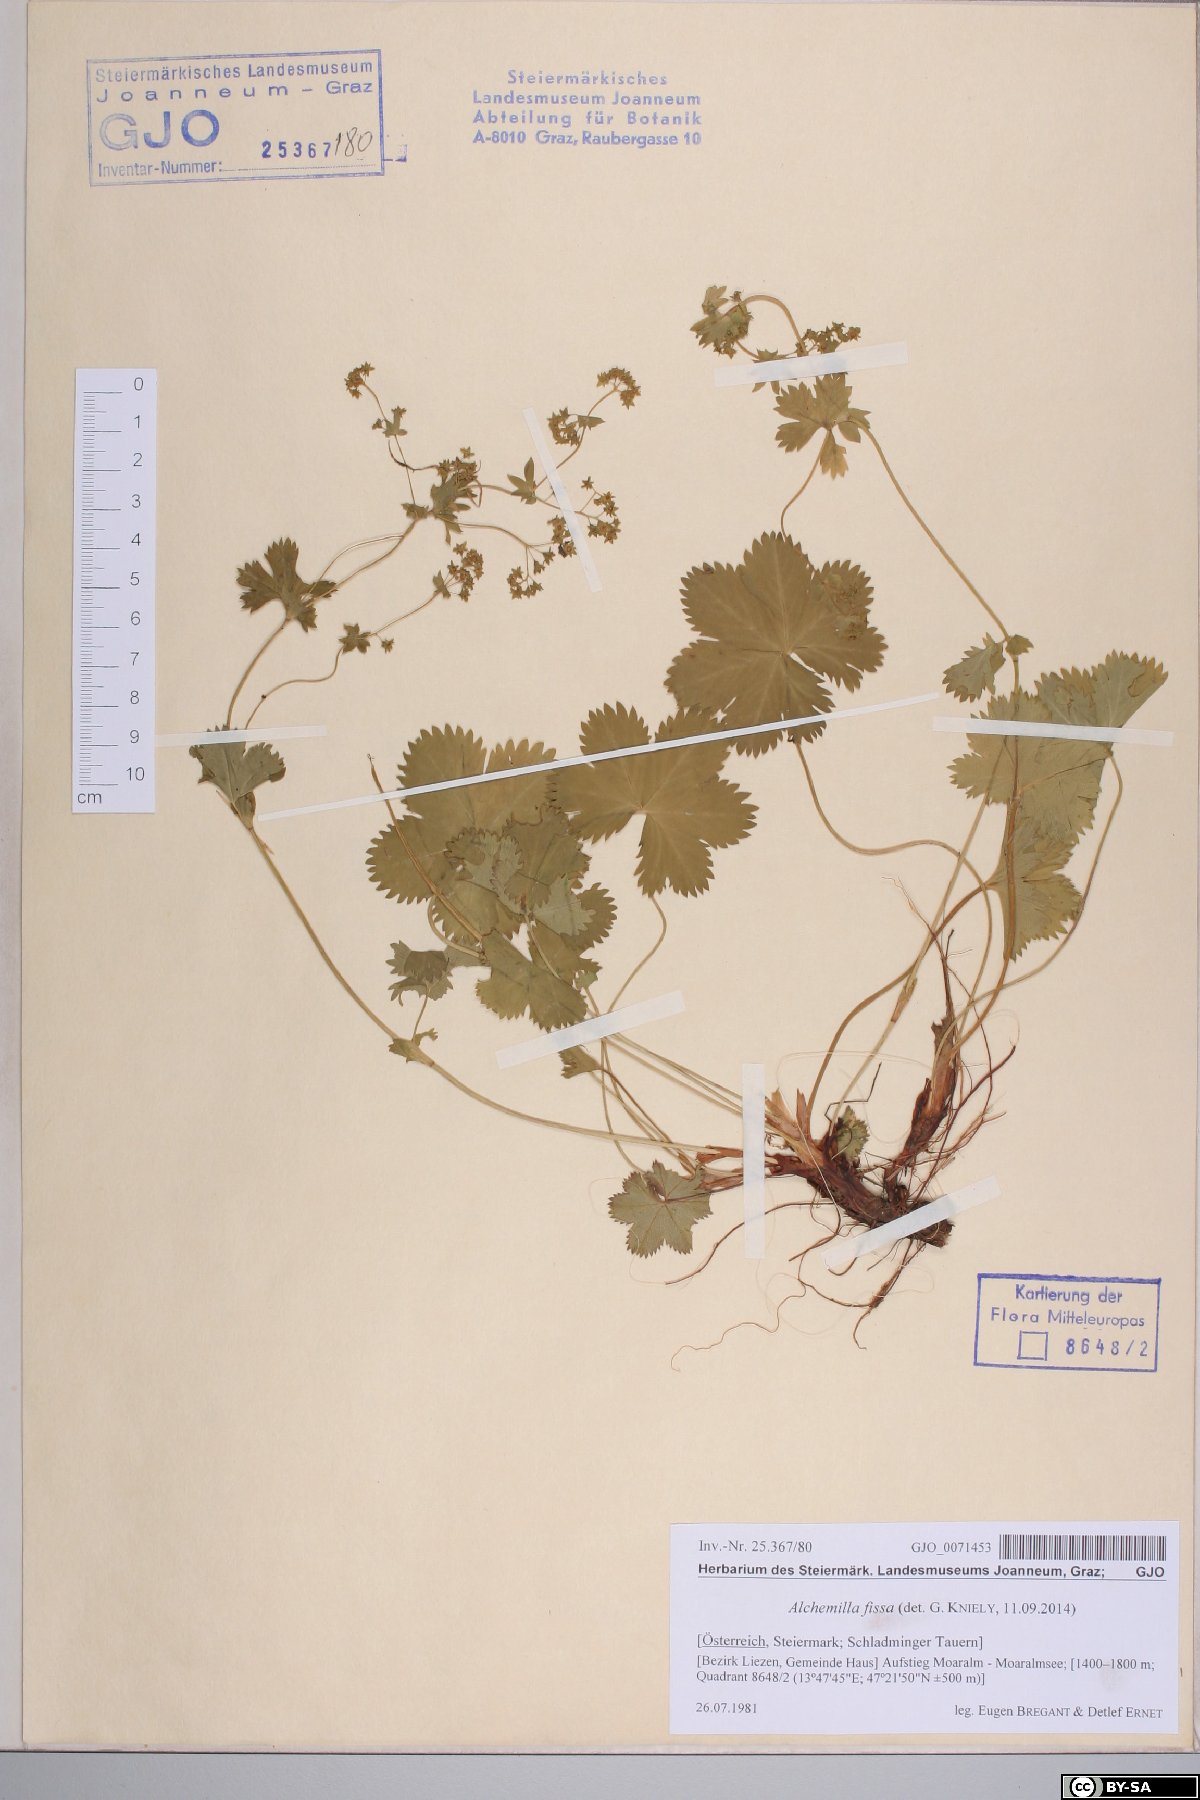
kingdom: Plantae
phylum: Tracheophyta
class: Magnoliopsida
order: Rosales
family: Rosaceae
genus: Alchemilla
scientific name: Alchemilla fissa
